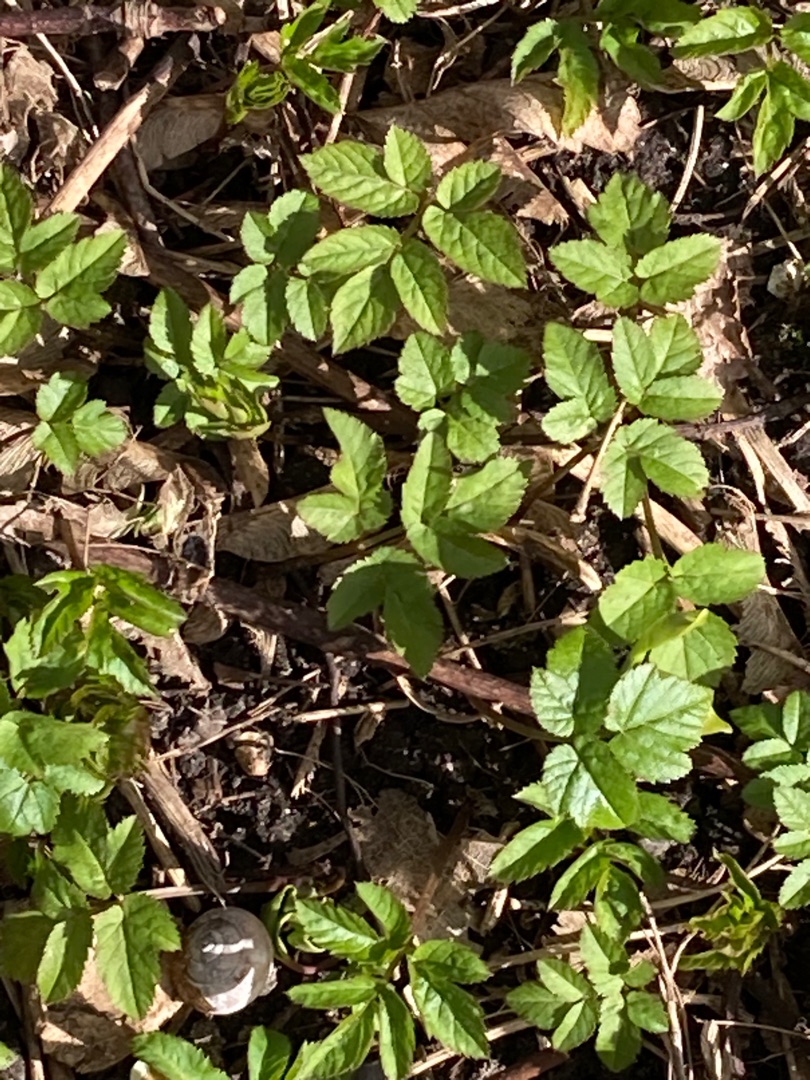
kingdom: Plantae
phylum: Tracheophyta
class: Magnoliopsida
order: Apiales
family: Apiaceae
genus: Aegopodium
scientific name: Aegopodium podagraria
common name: Skvalderkål
